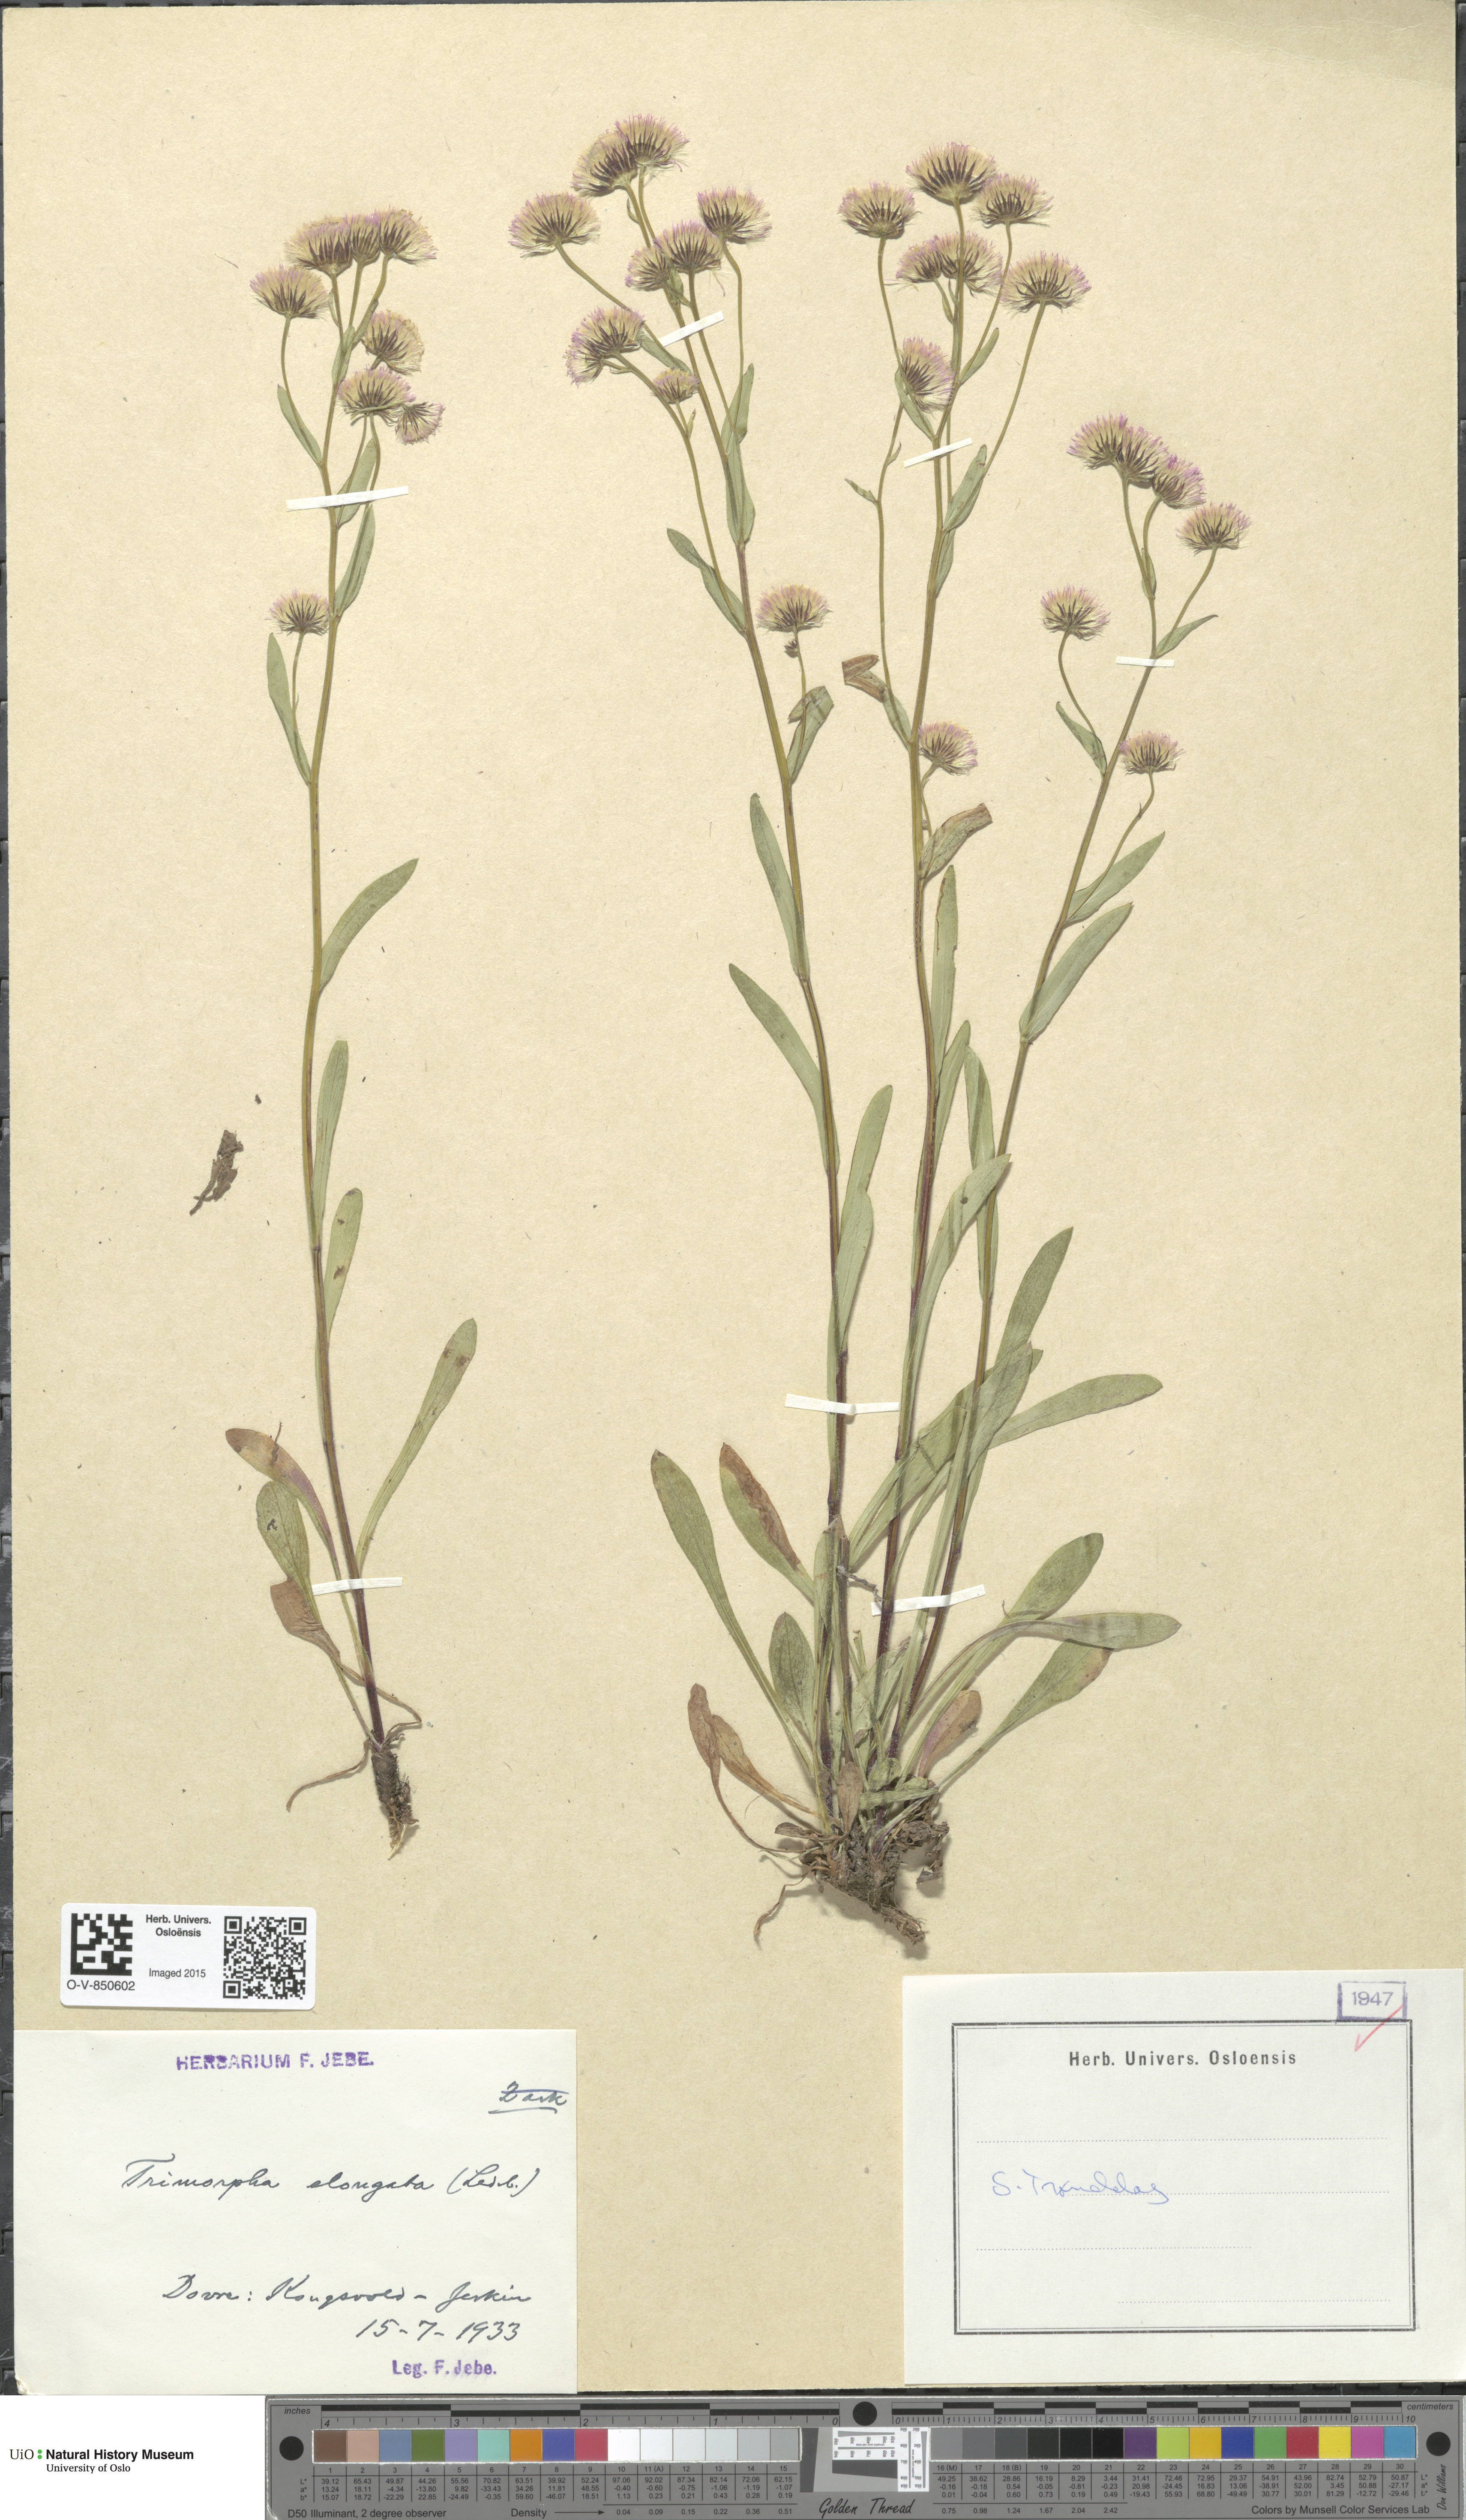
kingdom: Plantae
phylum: Tracheophyta
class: Magnoliopsida
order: Asterales
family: Asteraceae
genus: Erigeron
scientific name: Erigeron politus
